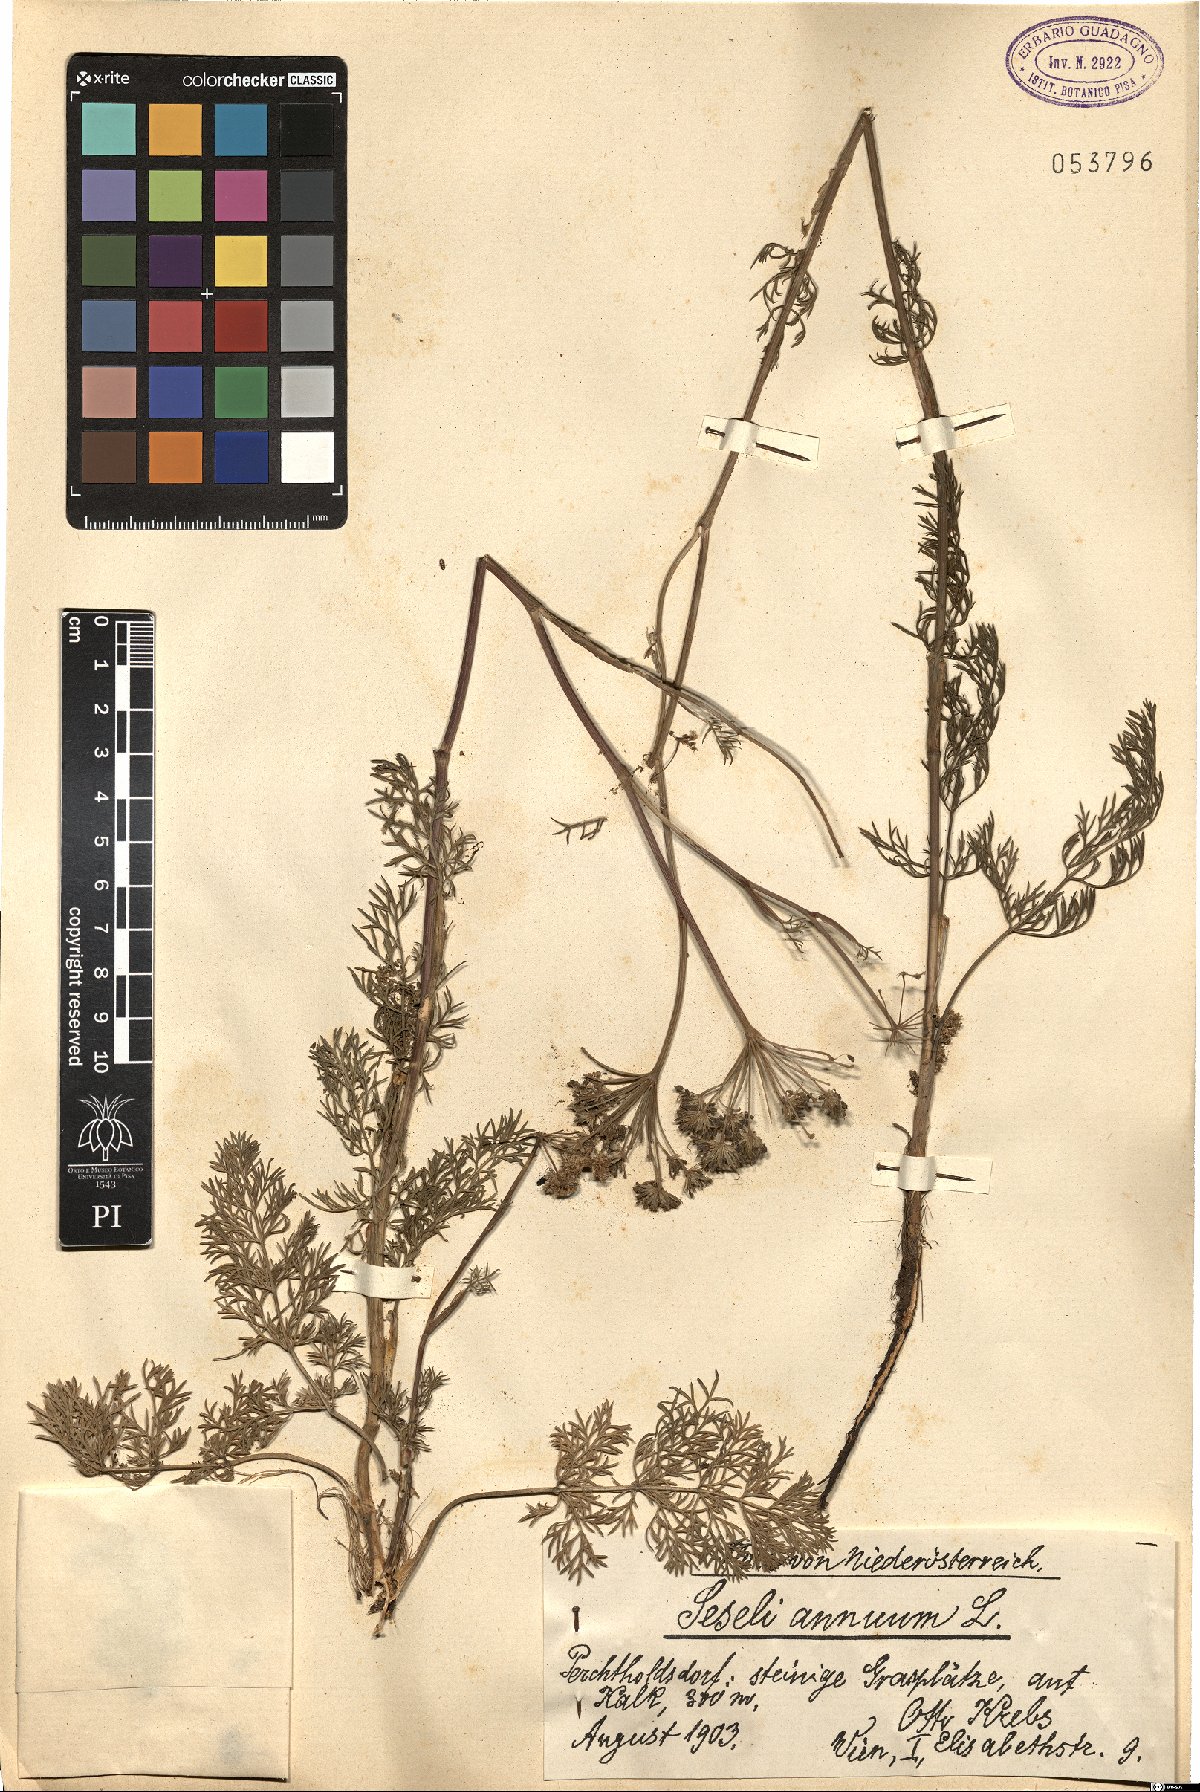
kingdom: Plantae
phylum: Tracheophyta
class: Magnoliopsida
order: Apiales
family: Apiaceae
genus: Seseli
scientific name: Seseli annuum
